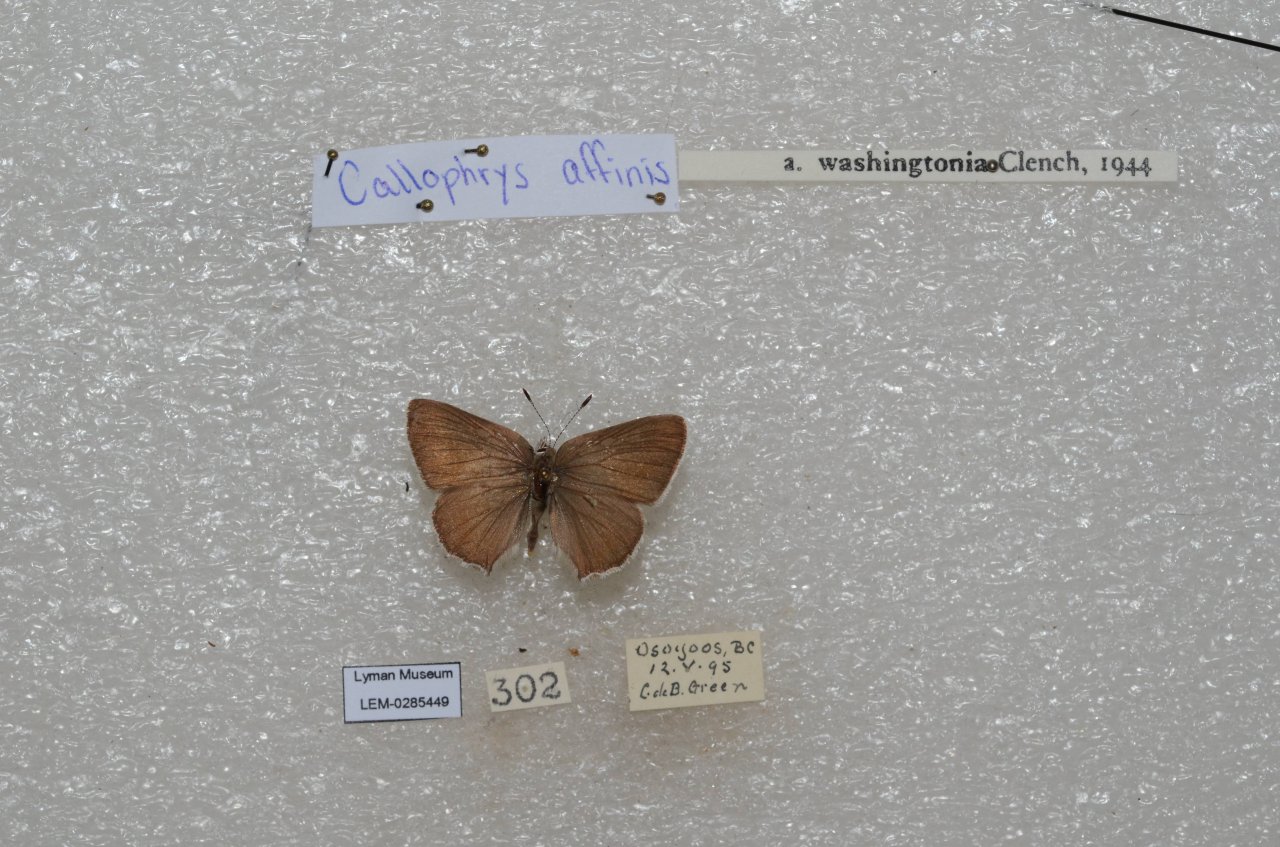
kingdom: Animalia
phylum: Arthropoda
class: Insecta
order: Lepidoptera
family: Lycaenidae
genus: Callophrys
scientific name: Callophrys affinis
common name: Western Green Hairstreak
